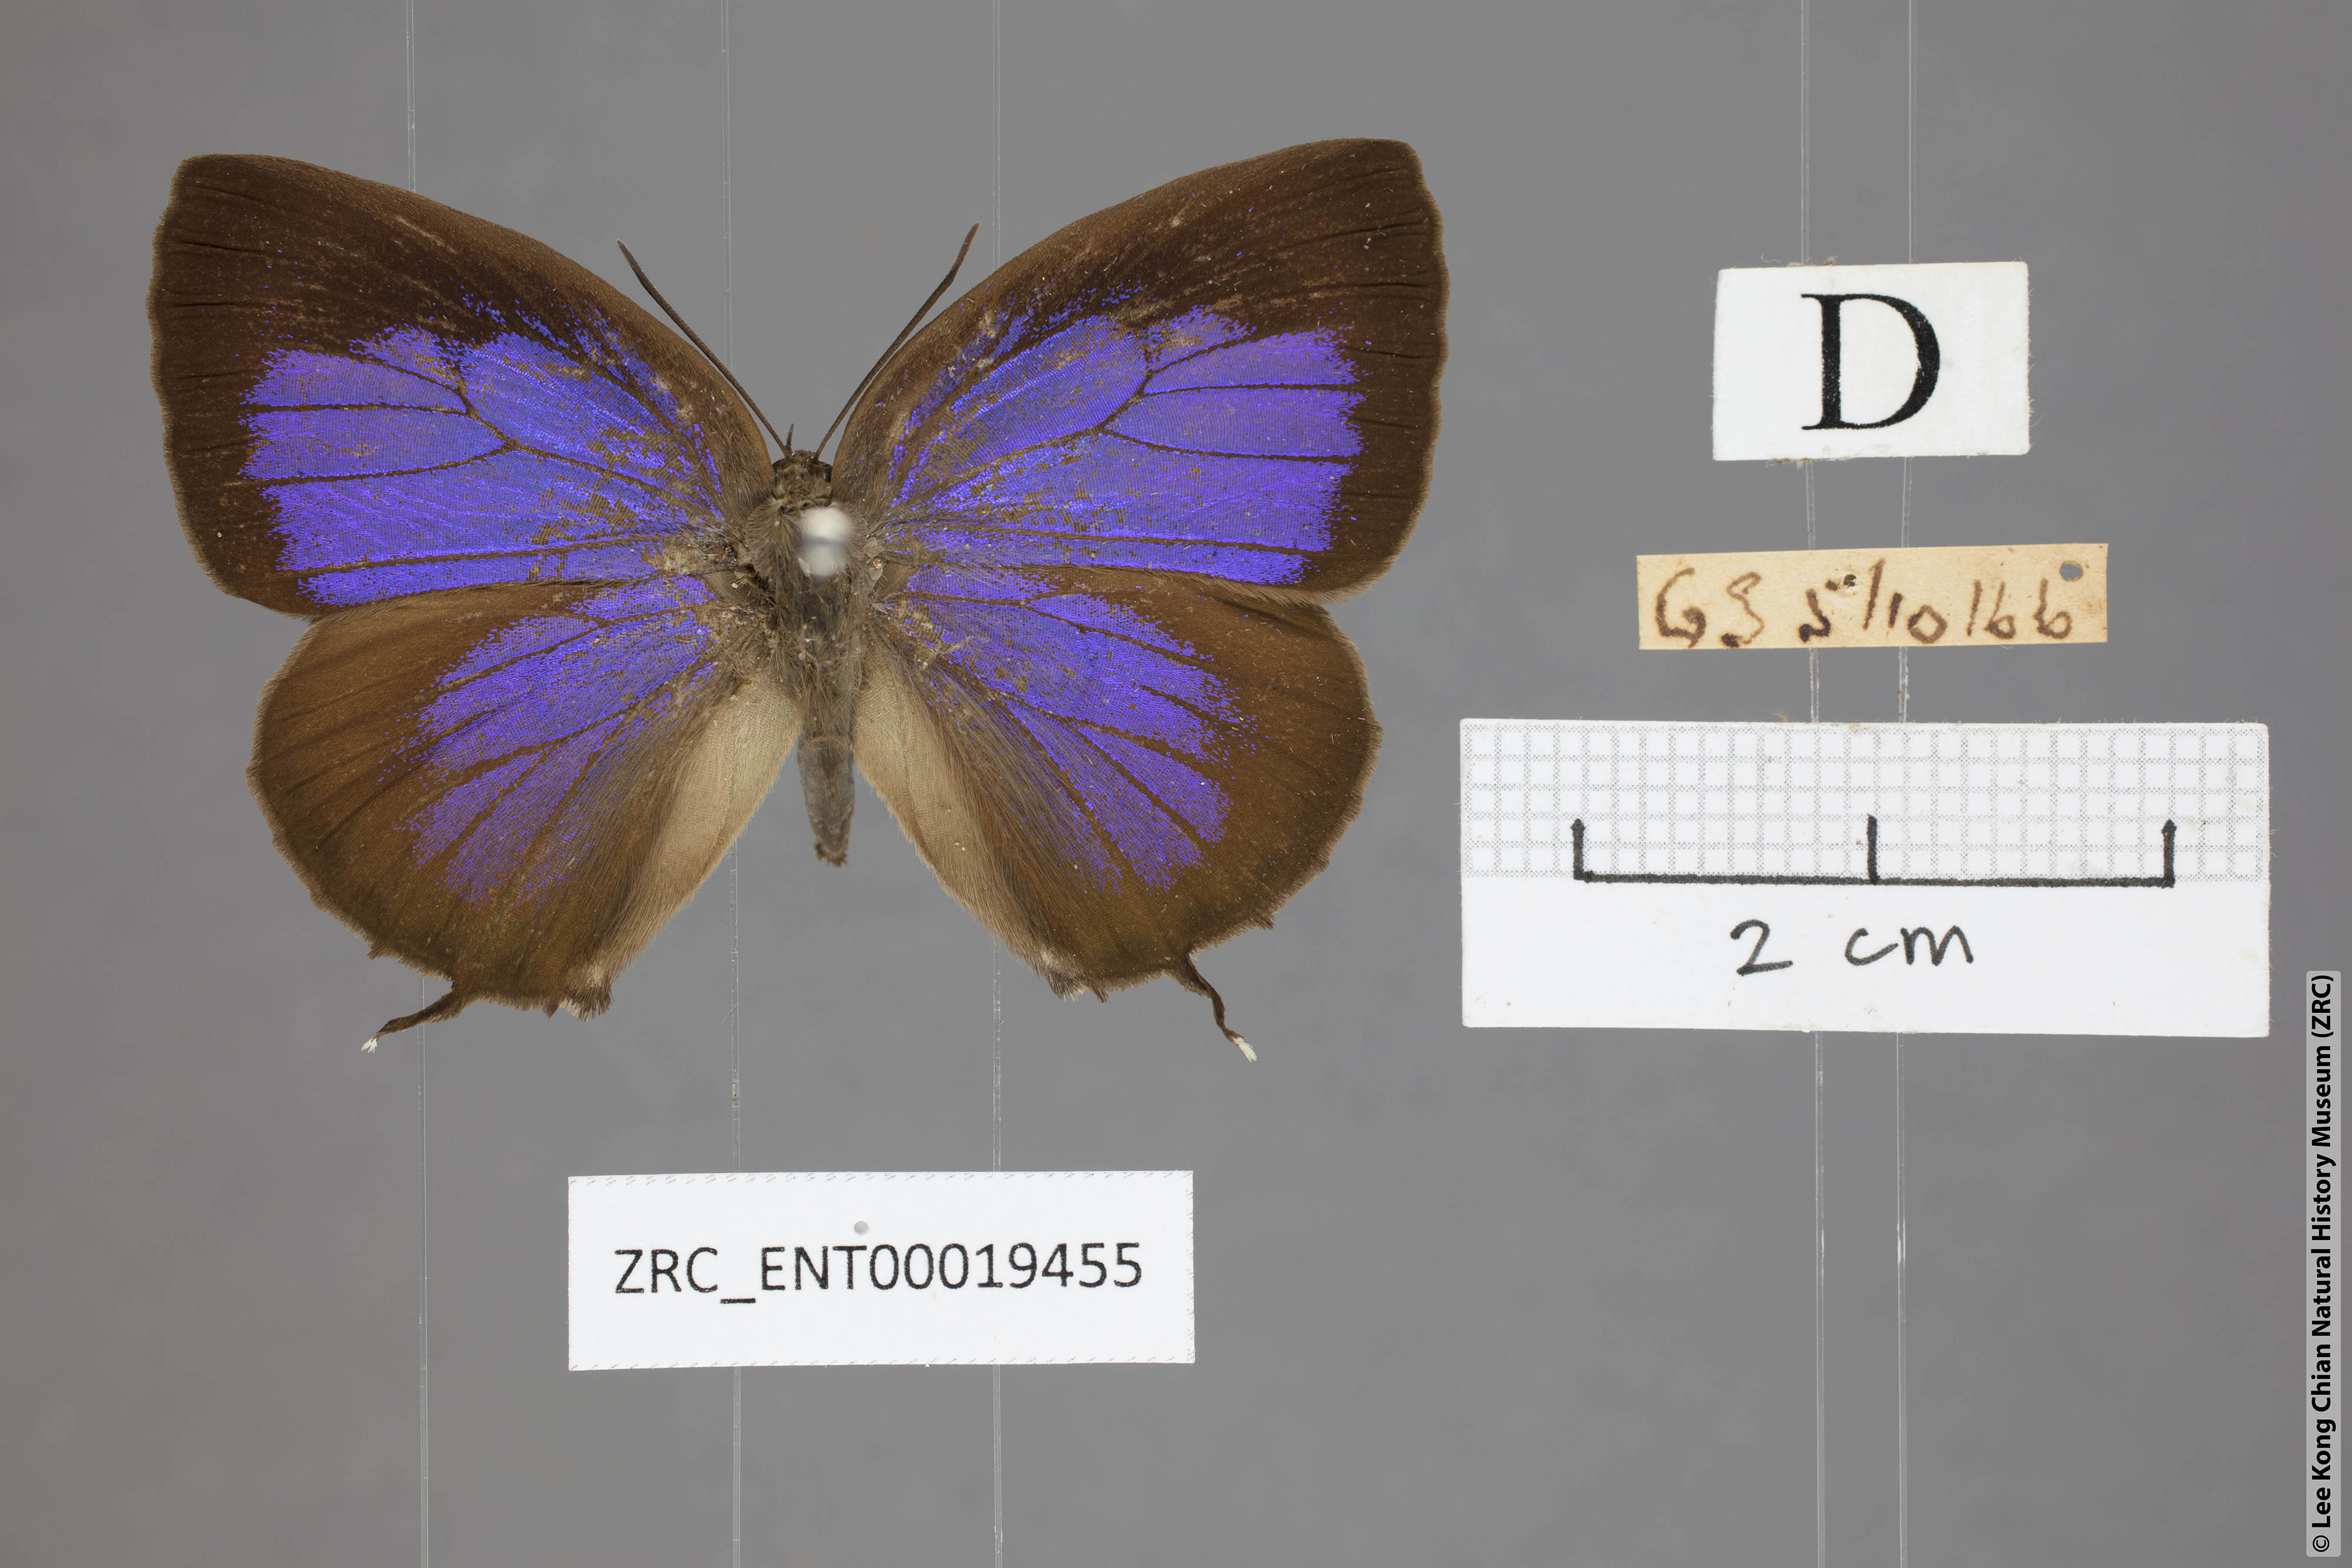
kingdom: Animalia
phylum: Arthropoda
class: Insecta
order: Lepidoptera
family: Lycaenidae
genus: Arhopala
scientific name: Arhopala eumolphus
